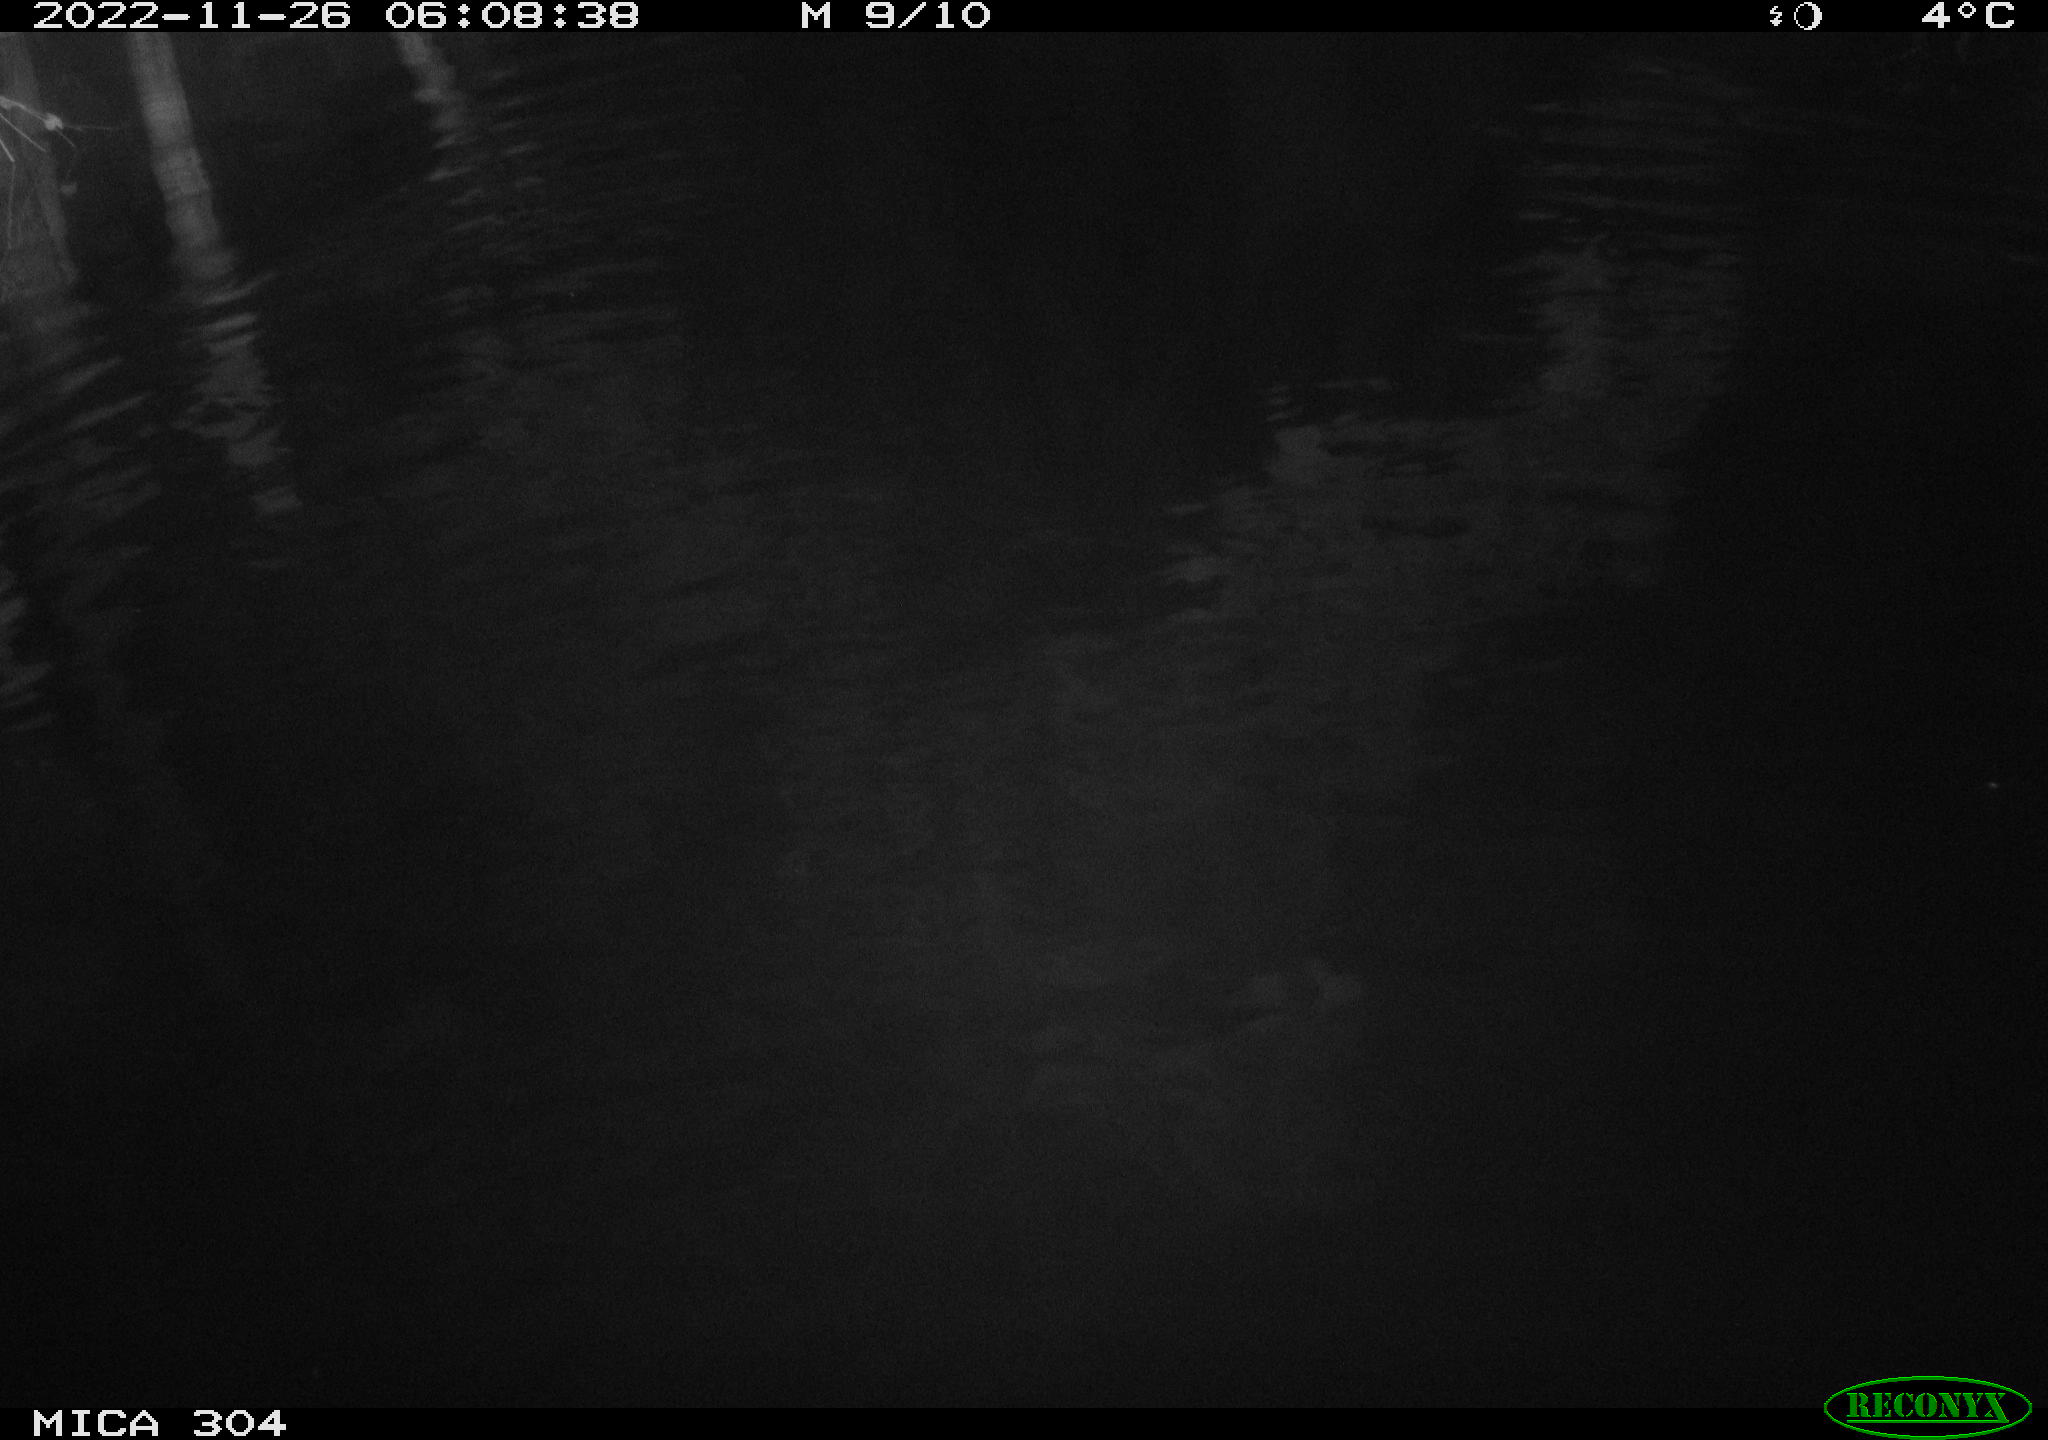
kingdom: Animalia
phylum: Chordata
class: Aves
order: Anseriformes
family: Anatidae
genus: Anas
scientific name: Anas
